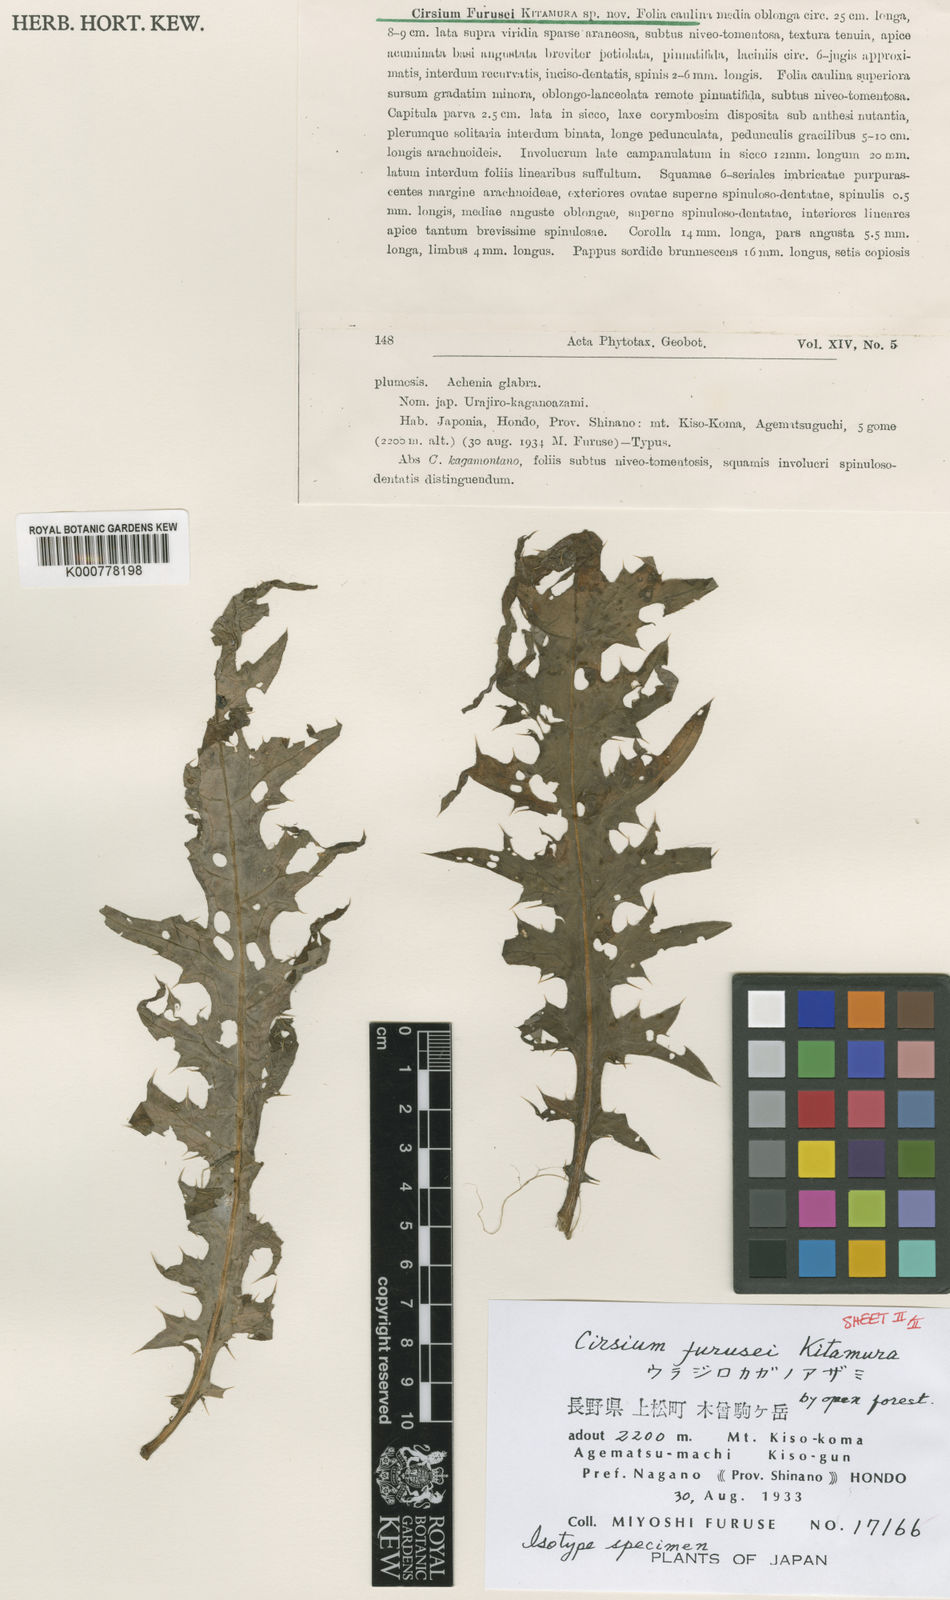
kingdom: Plantae
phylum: Tracheophyta
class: Magnoliopsida
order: Asterales
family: Asteraceae
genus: Cirsium
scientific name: Cirsium furusei
